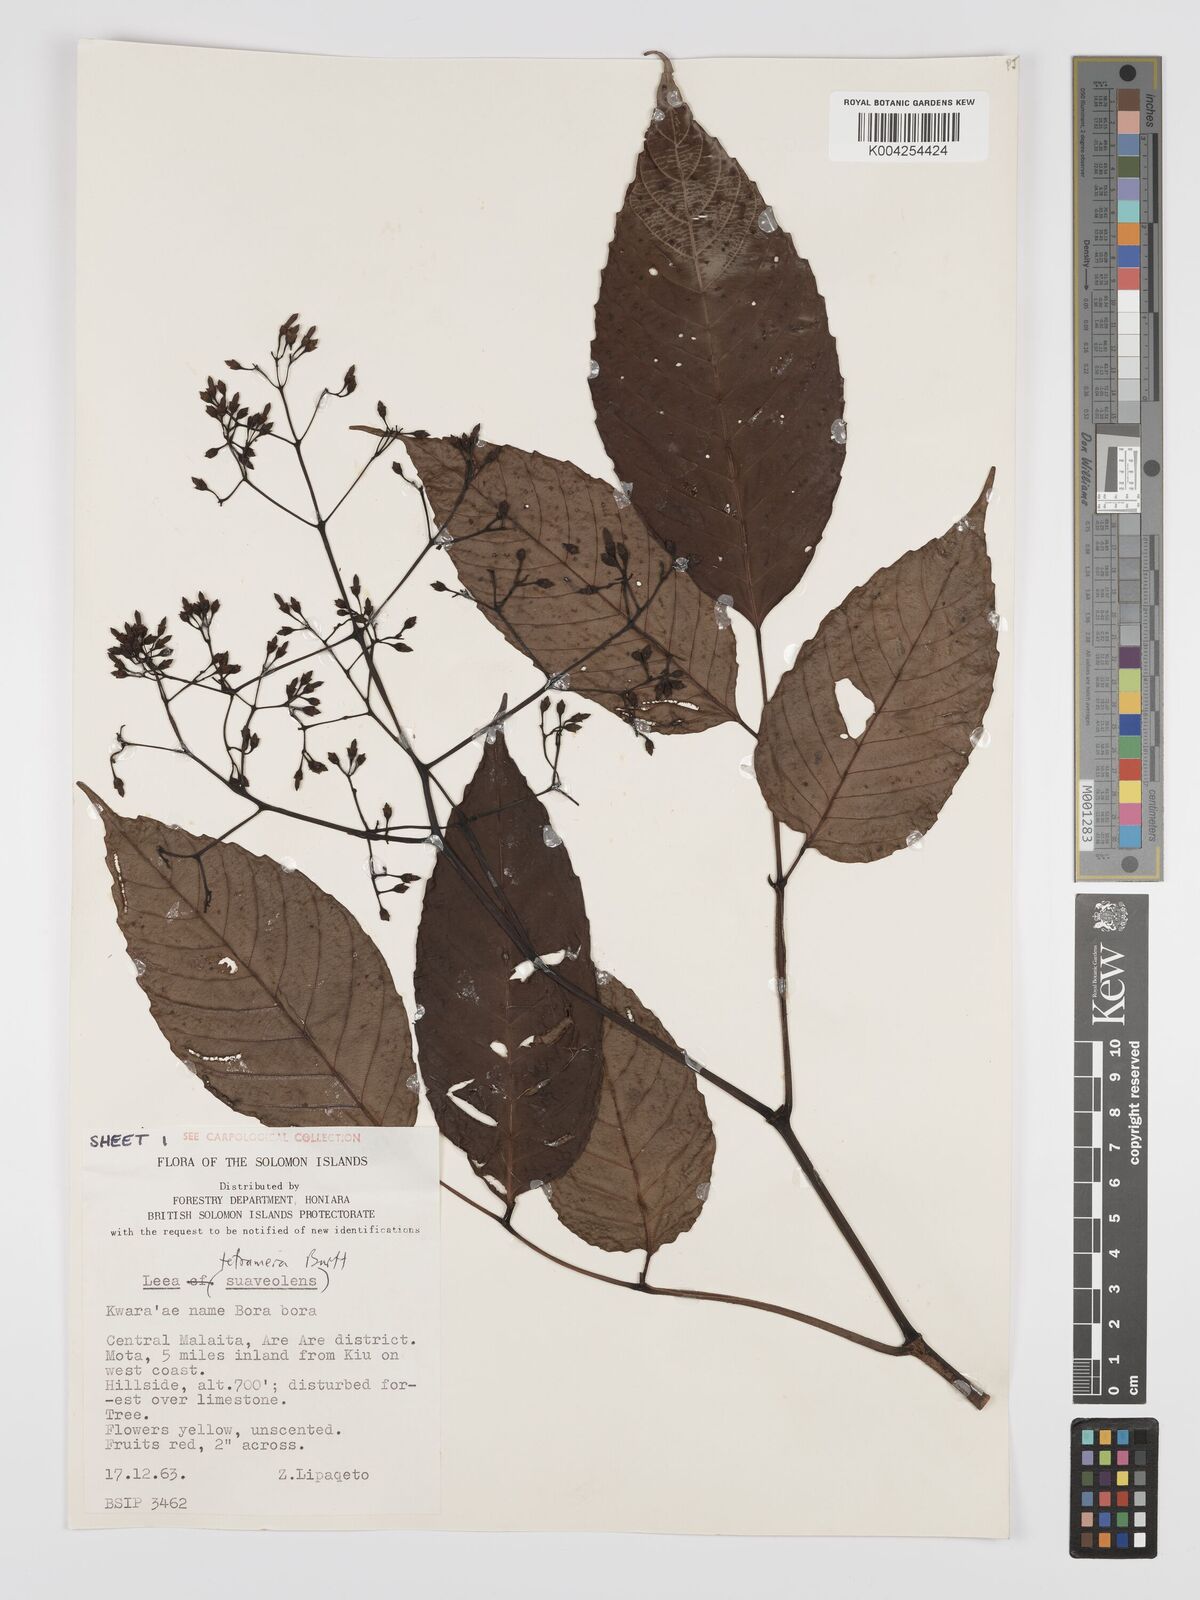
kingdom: Plantae
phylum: Tracheophyta
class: Magnoliopsida
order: Vitales
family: Vitaceae
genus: Leea
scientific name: Leea tetramera
